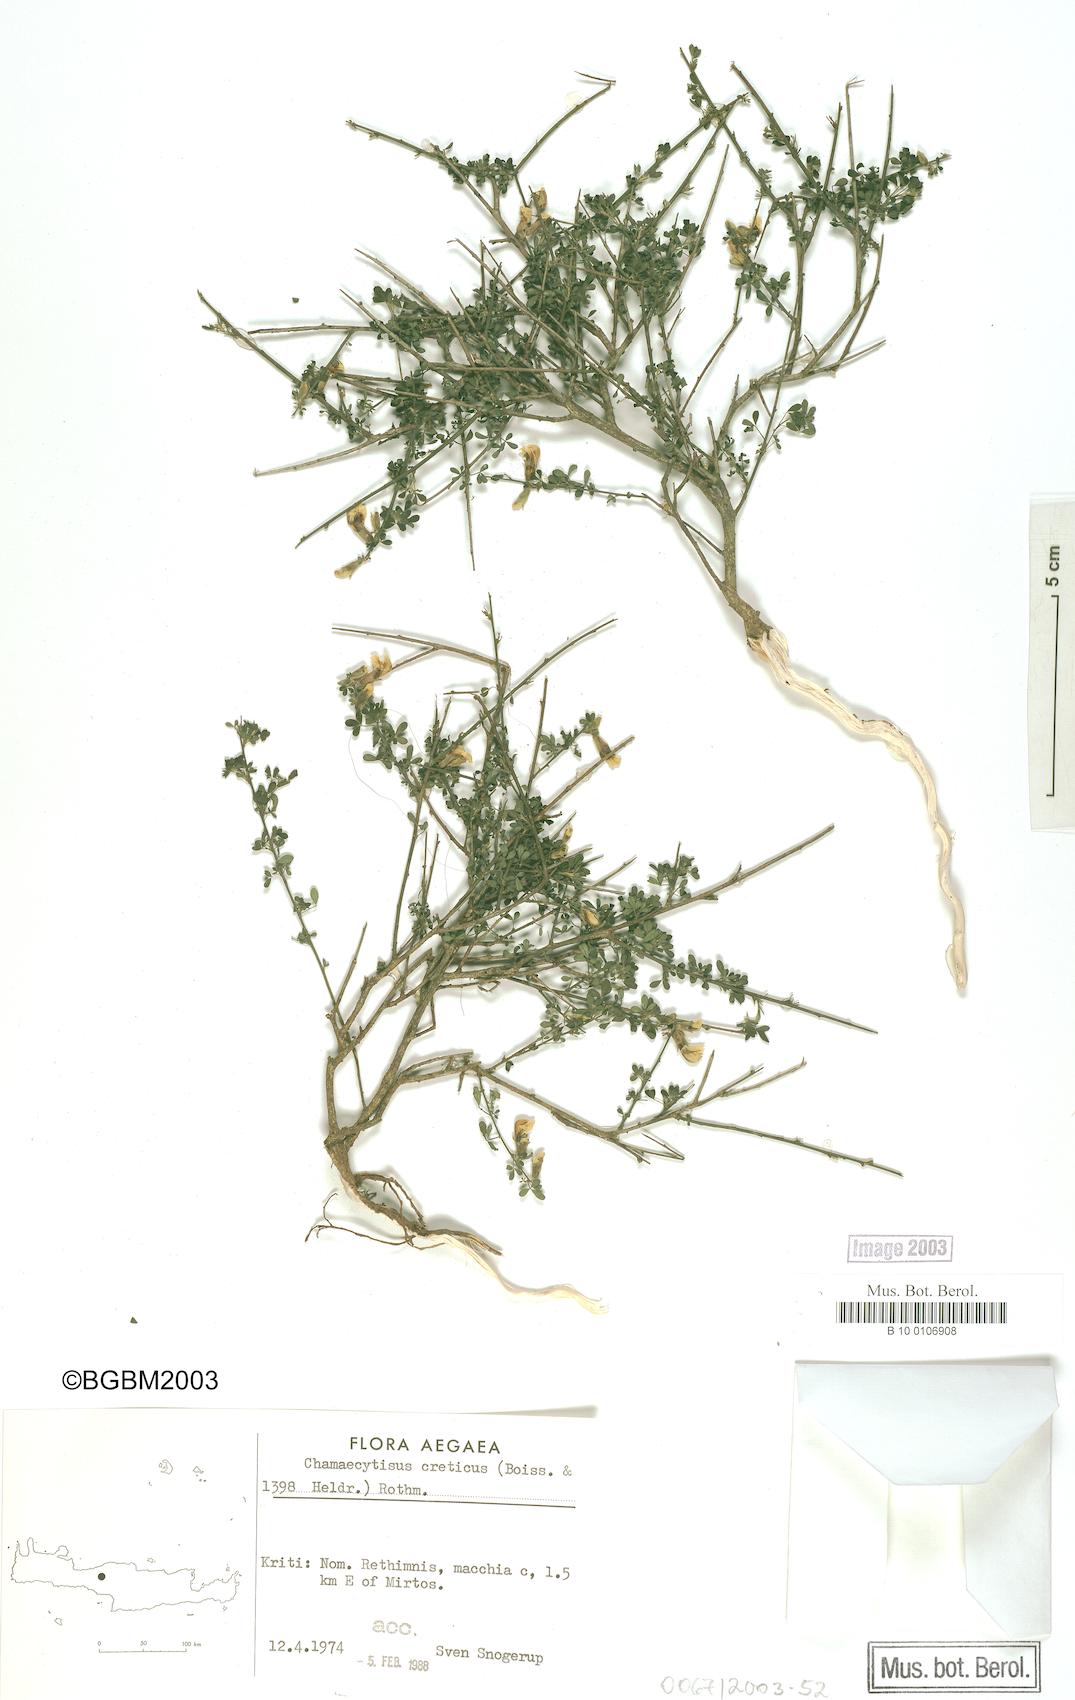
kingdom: Plantae
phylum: Tracheophyta
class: Magnoliopsida
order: Fabales
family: Fabaceae
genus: Chamaecytisus
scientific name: Chamaecytisus spinescens
